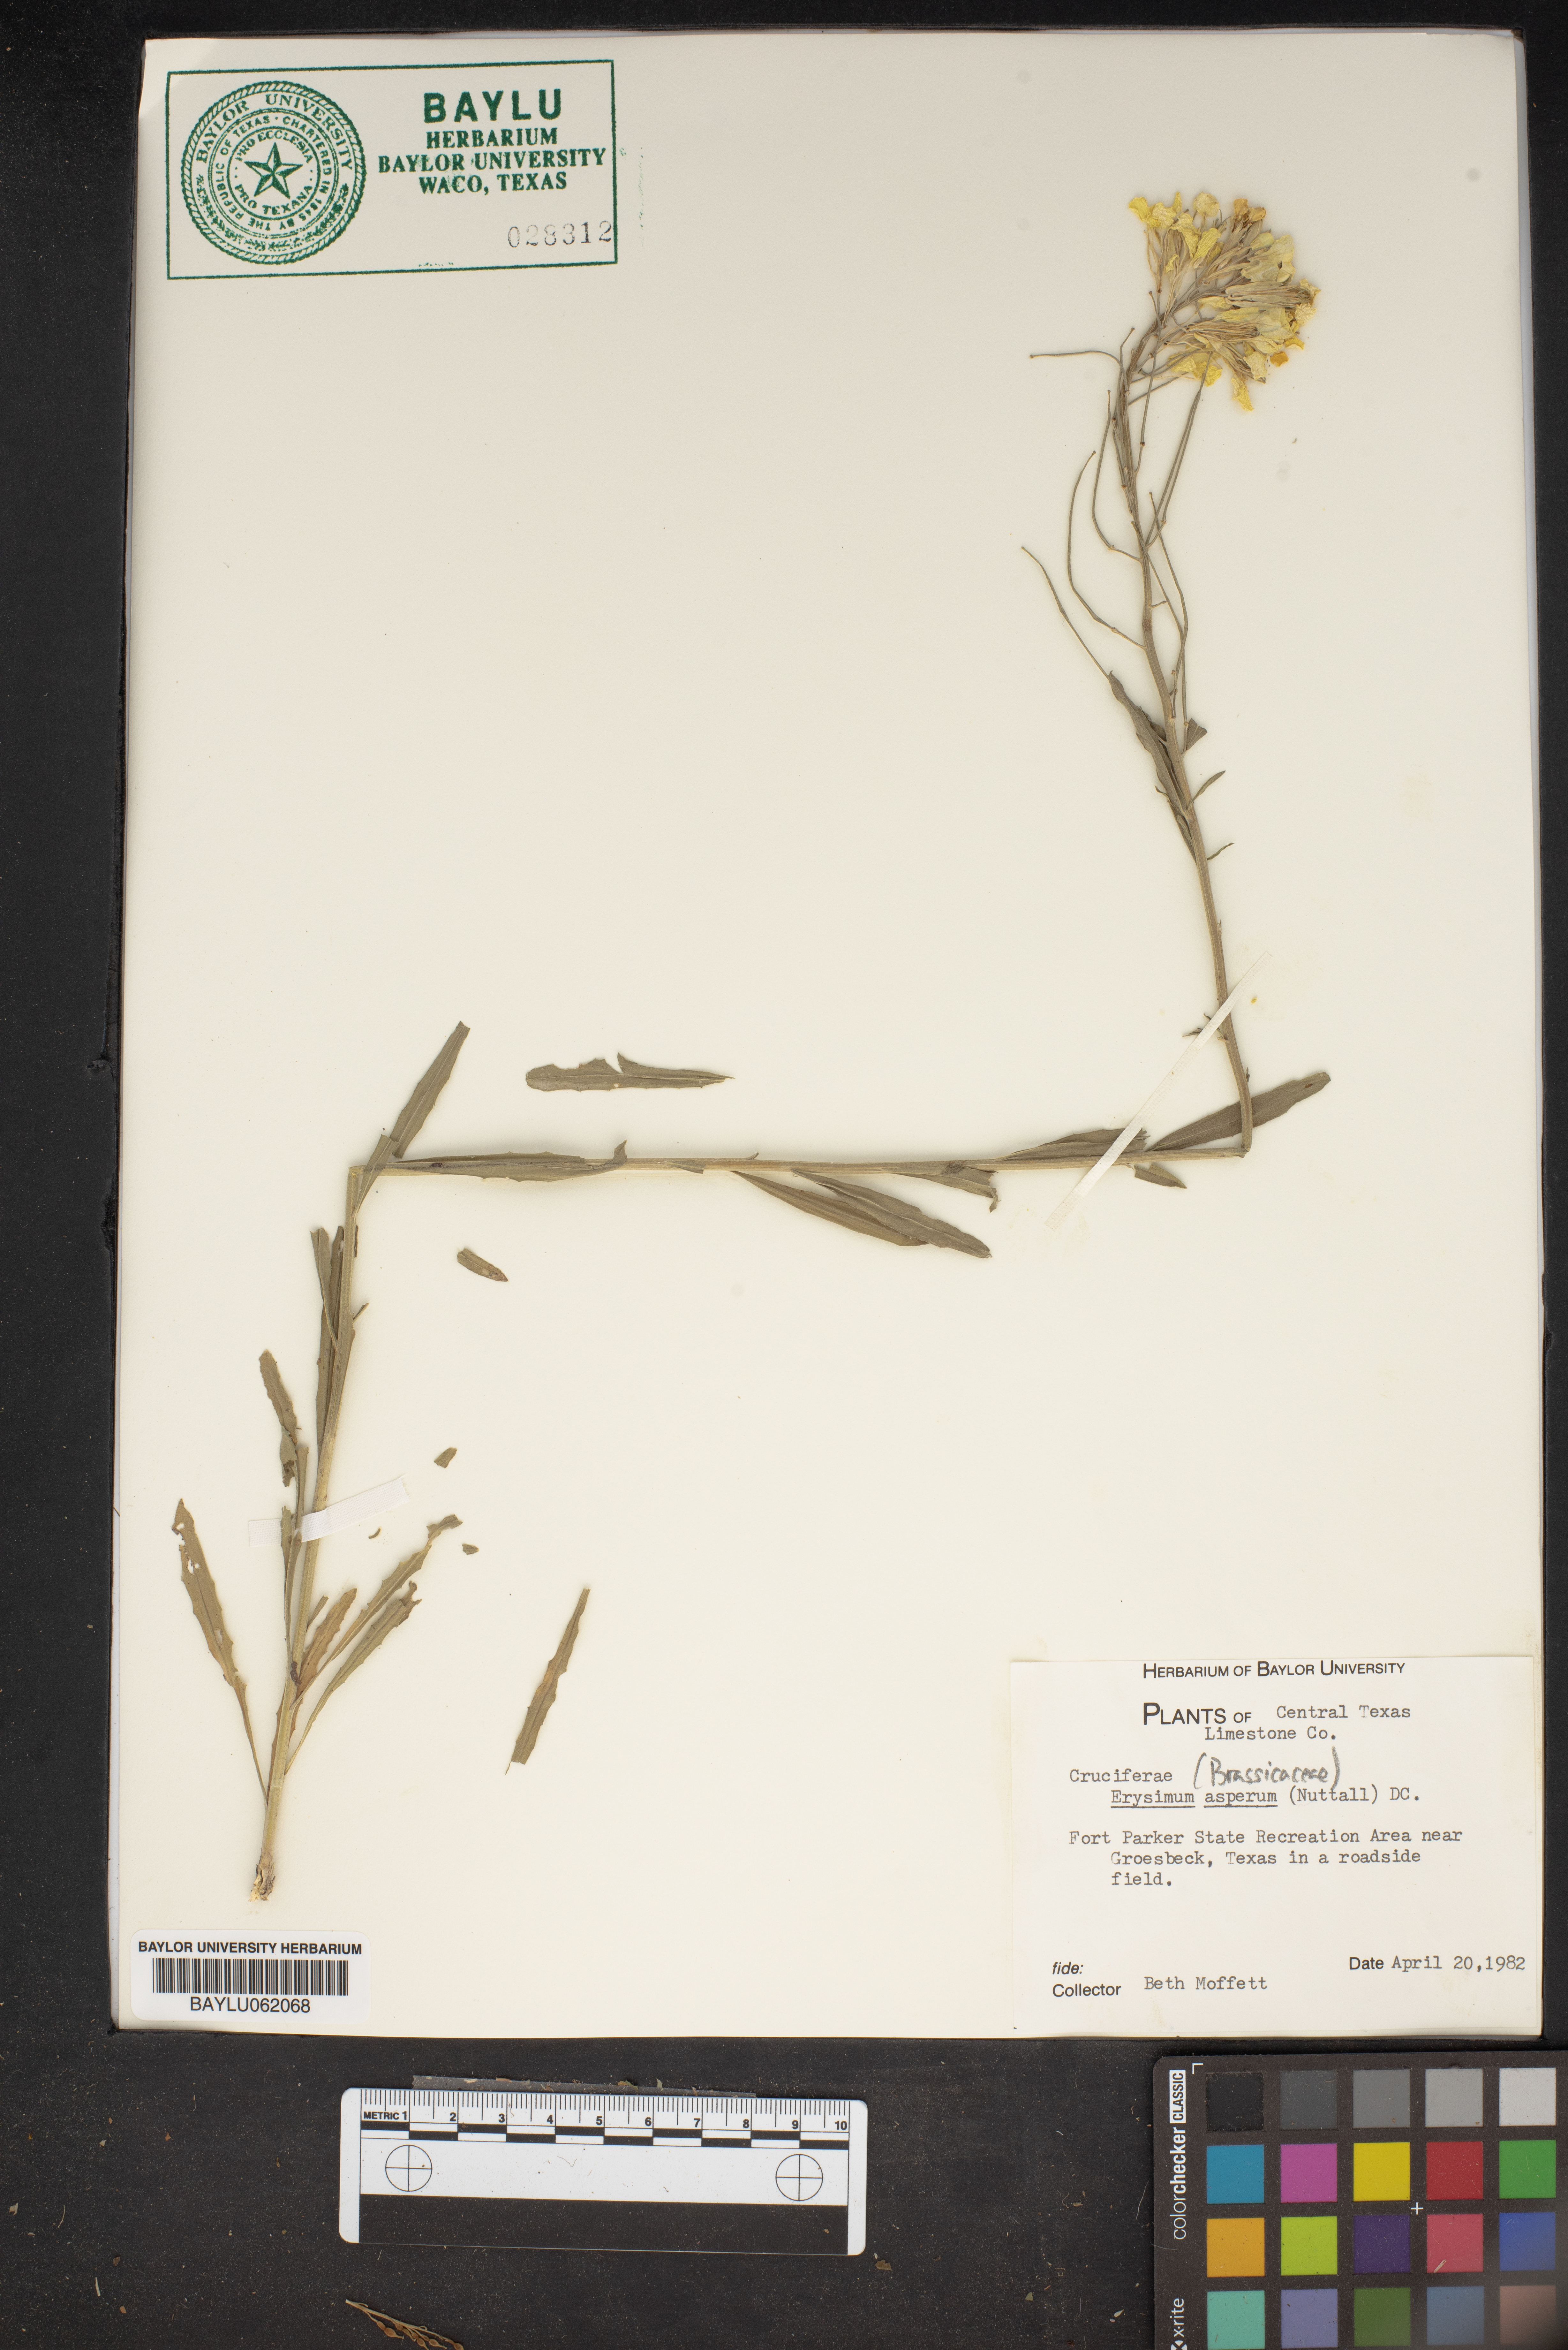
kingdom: Plantae
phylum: Tracheophyta
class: Magnoliopsida
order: Brassicales
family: Brassicaceae
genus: Erysimum
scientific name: Erysimum asperum
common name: Western wallflower
